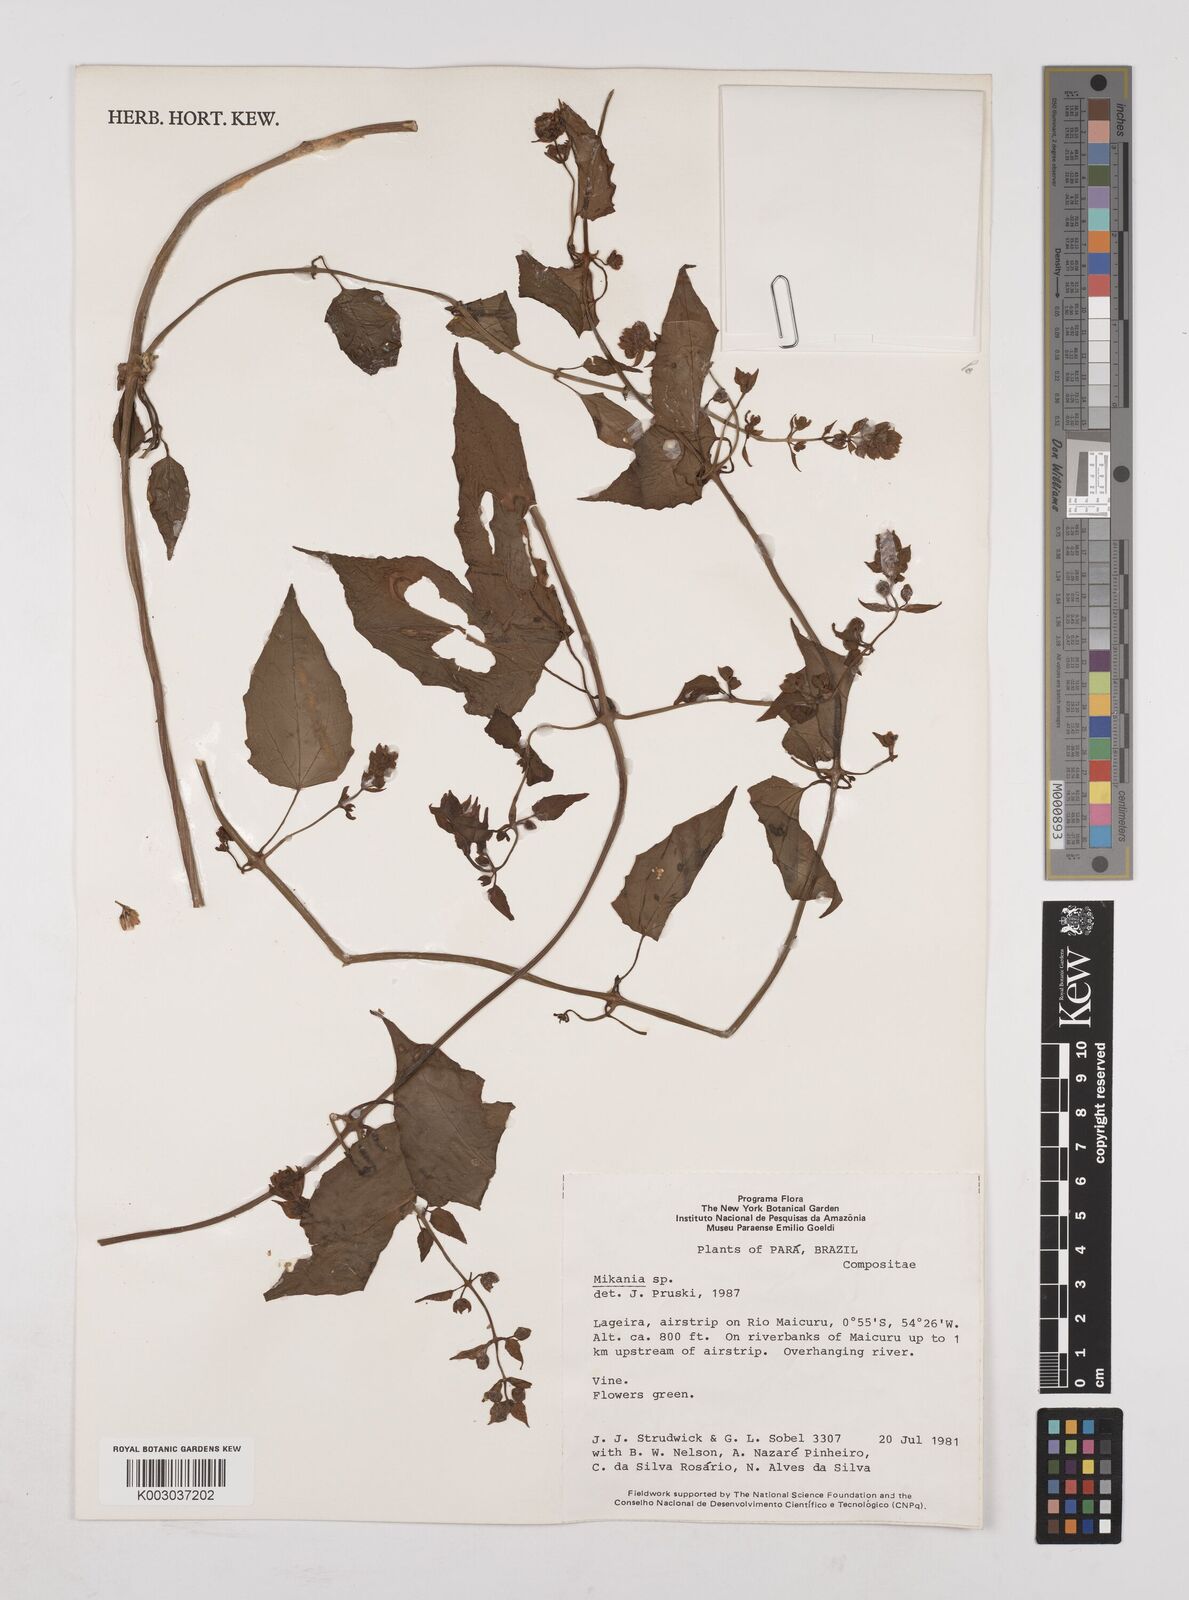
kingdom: Plantae
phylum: Tracheophyta
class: Magnoliopsida
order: Asterales
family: Asteraceae
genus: Mikania
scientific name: Mikania
